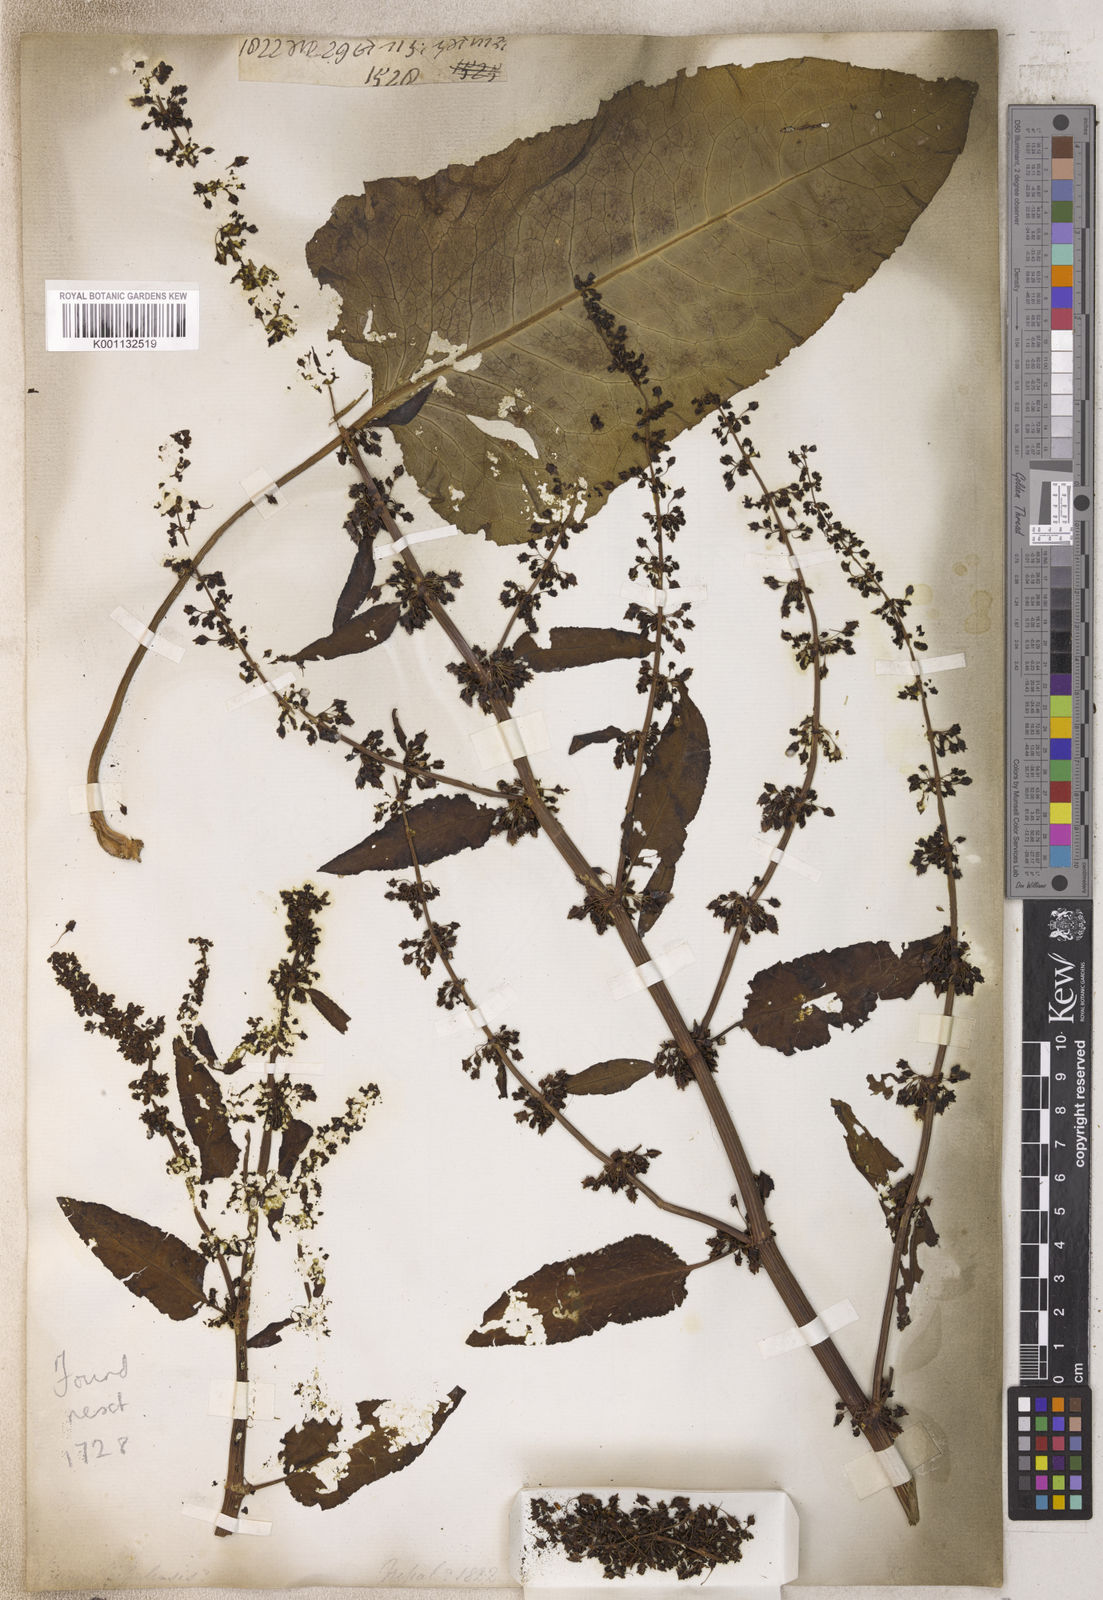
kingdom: Plantae
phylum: Tracheophyta
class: Magnoliopsida
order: Caryophyllales
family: Polygonaceae
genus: Rumex
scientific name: Rumex
